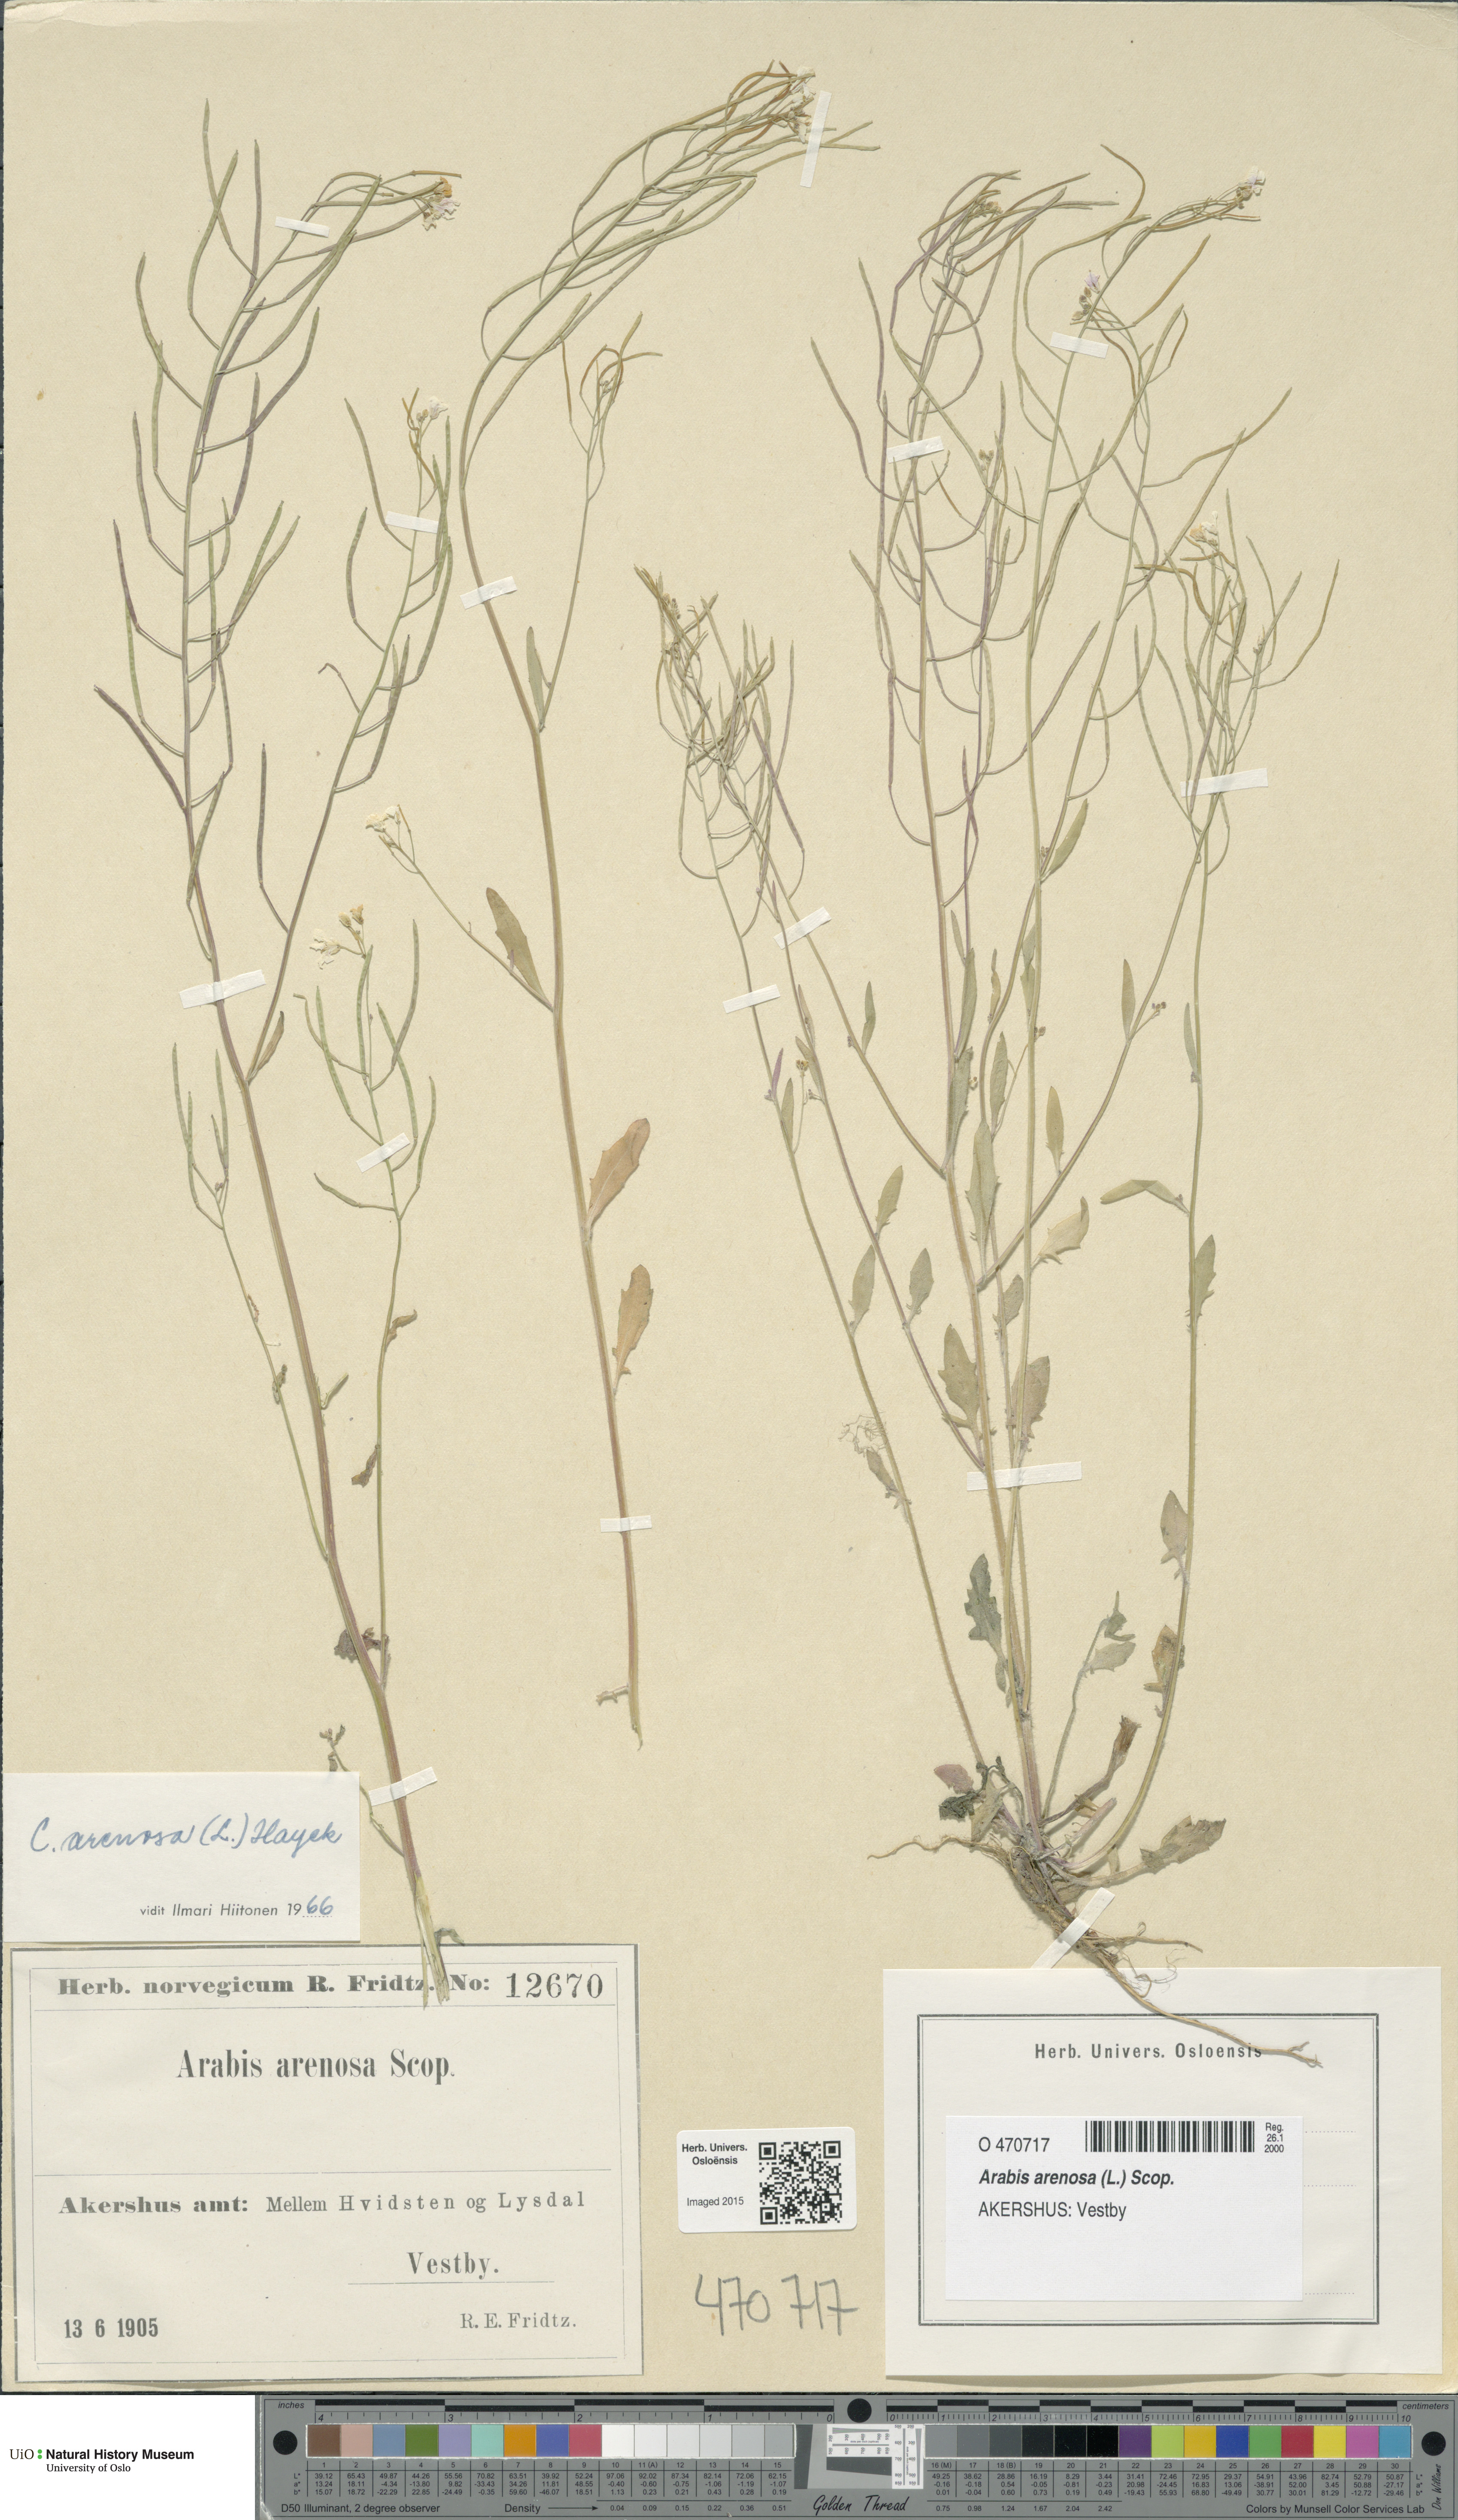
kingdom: Plantae
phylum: Tracheophyta
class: Magnoliopsida
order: Brassicales
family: Brassicaceae
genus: Arabidopsis
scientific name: Arabidopsis arenosa
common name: Sand rock-cress
